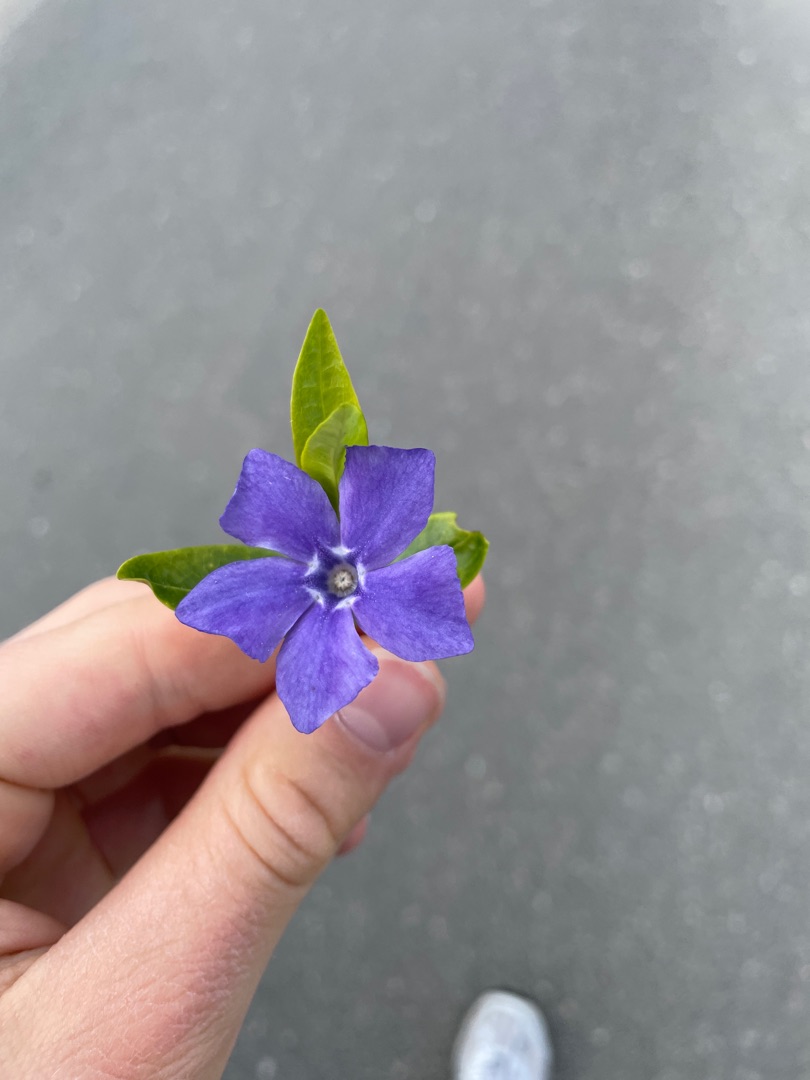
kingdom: Plantae
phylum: Tracheophyta
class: Magnoliopsida
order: Gentianales
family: Apocynaceae
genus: Vinca
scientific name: Vinca minor
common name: Liden singrøn
